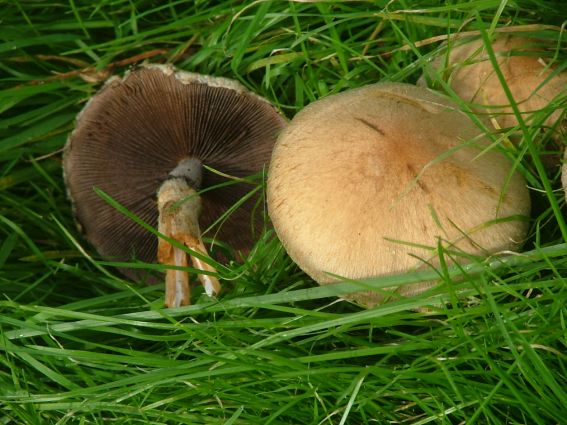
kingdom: Fungi
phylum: Basidiomycota
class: Agaricomycetes
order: Agaricales
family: Psathyrellaceae
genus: Lacrymaria
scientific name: Lacrymaria lacrymabunda
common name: grædende mørkhat
